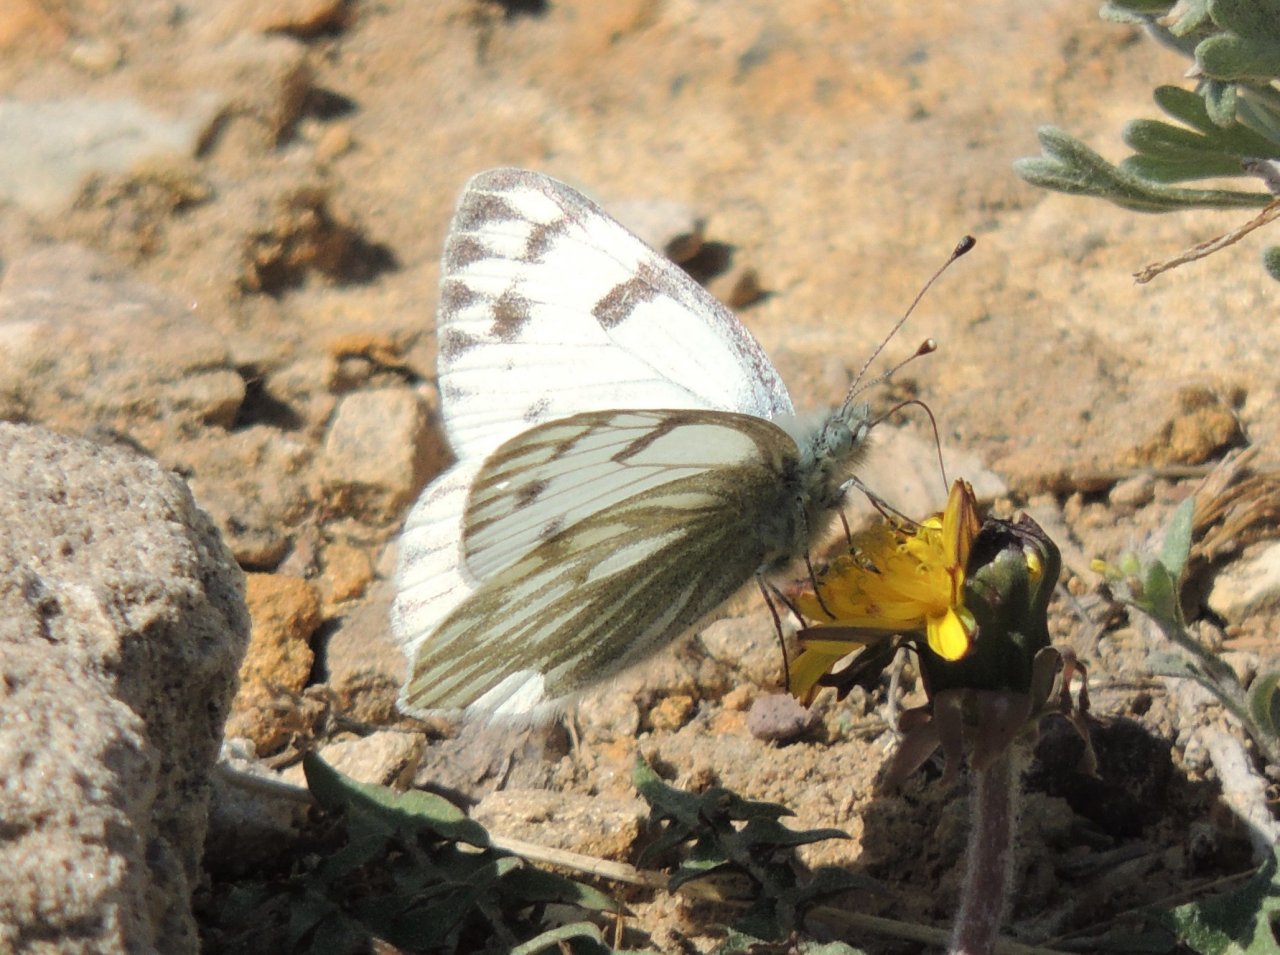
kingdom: Animalia
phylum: Arthropoda
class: Insecta
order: Lepidoptera
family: Pieridae
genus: Pontia
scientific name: Pontia occidentalis
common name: Western White
